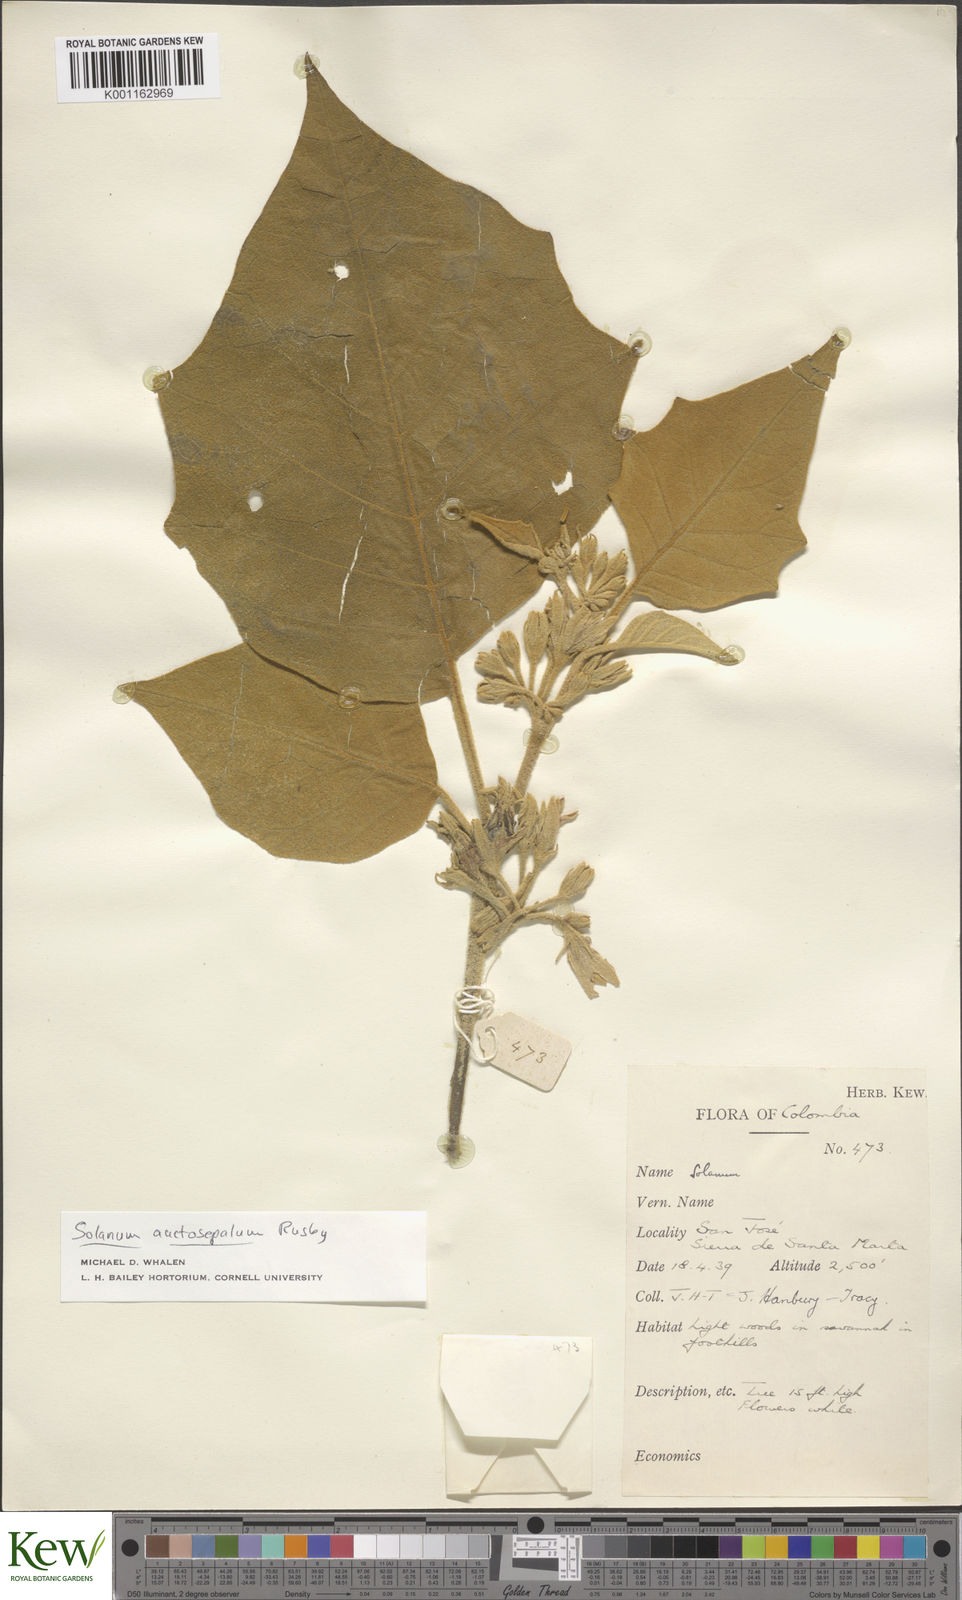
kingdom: Plantae
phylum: Tracheophyta
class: Magnoliopsida
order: Solanales
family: Solanaceae
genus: Solanum
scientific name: Solanum stellatiglandulosum
